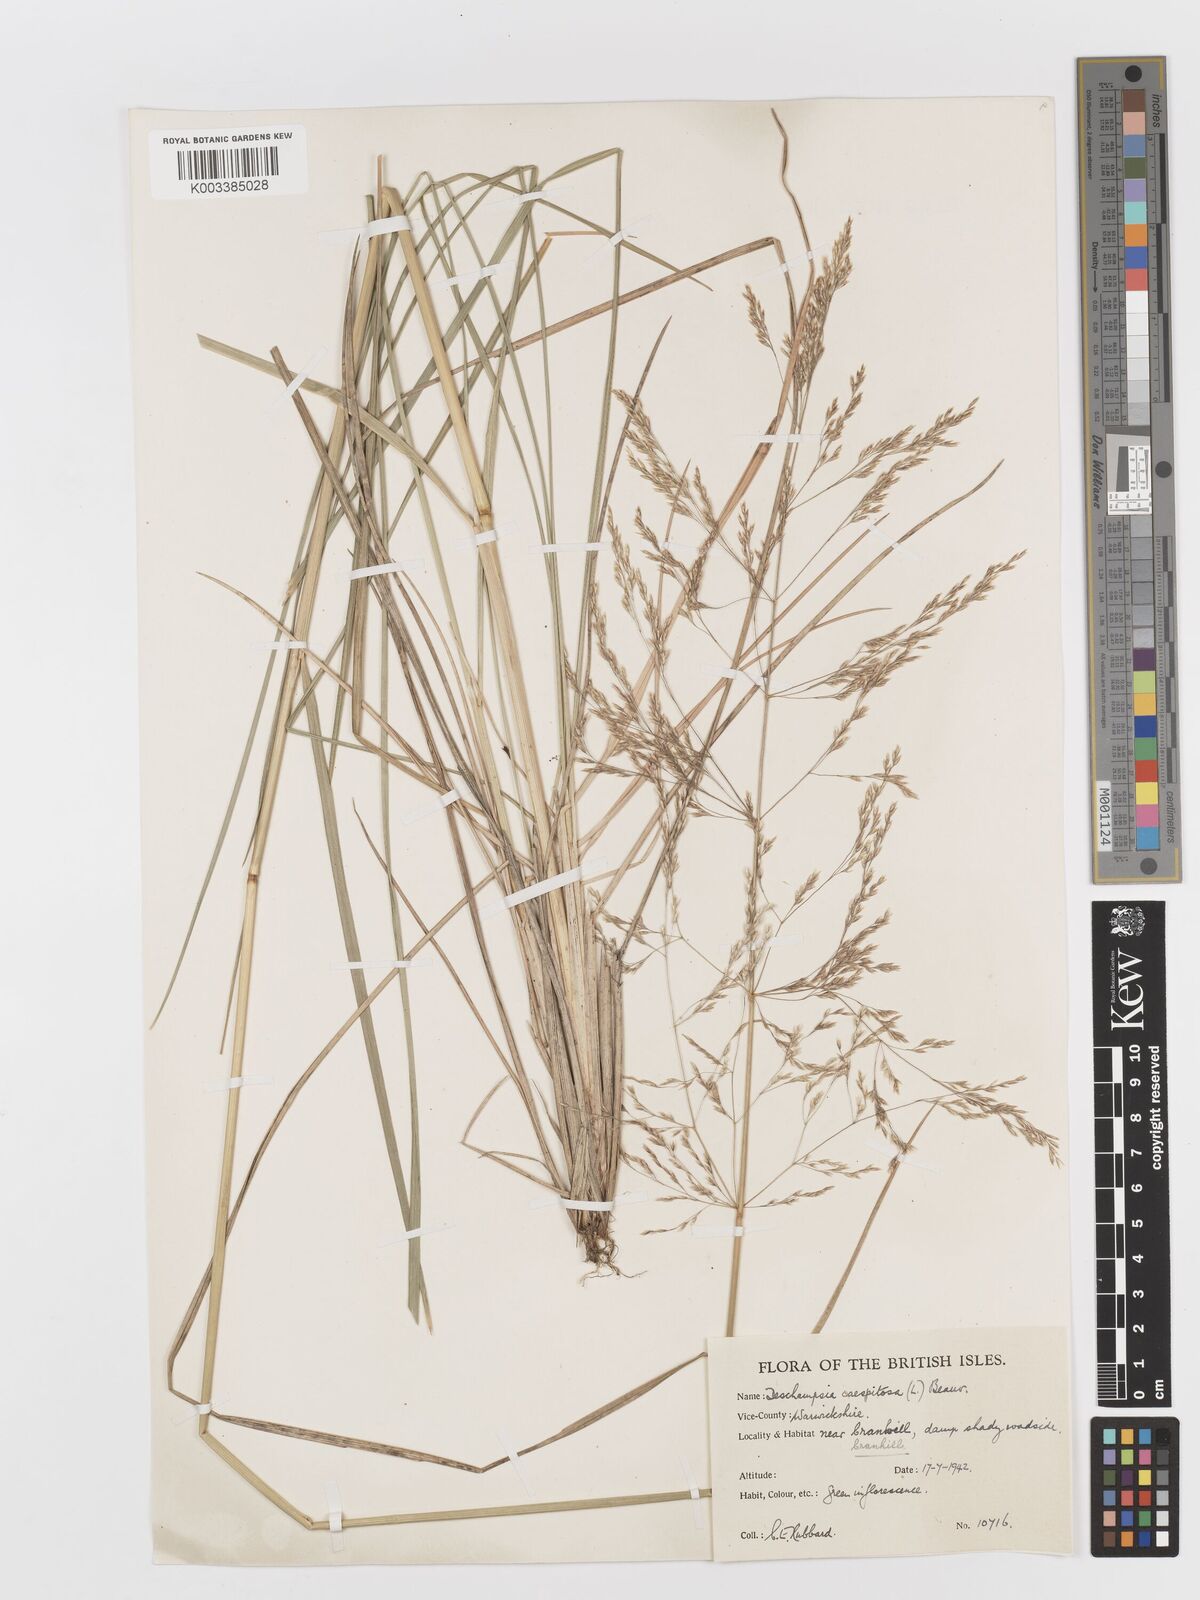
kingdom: Plantae
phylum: Tracheophyta
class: Liliopsida
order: Poales
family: Poaceae
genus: Deschampsia
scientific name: Deschampsia cespitosa
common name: Tufted hair-grass
